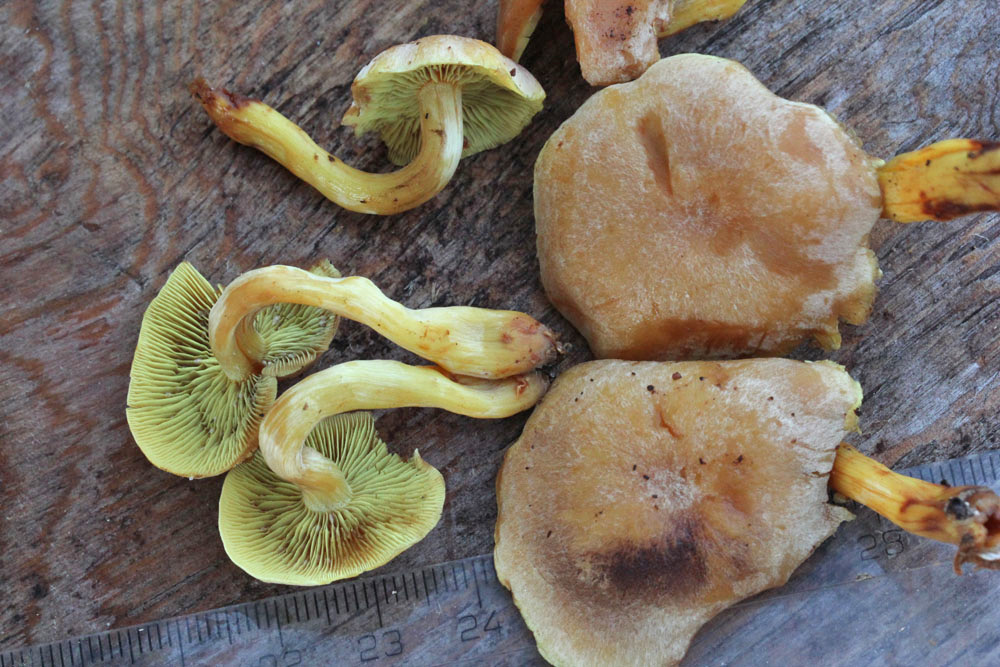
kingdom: Fungi
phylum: Basidiomycota
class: Agaricomycetes
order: Agaricales
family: Strophariaceae
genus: Hypholoma
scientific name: Hypholoma fasciculare
